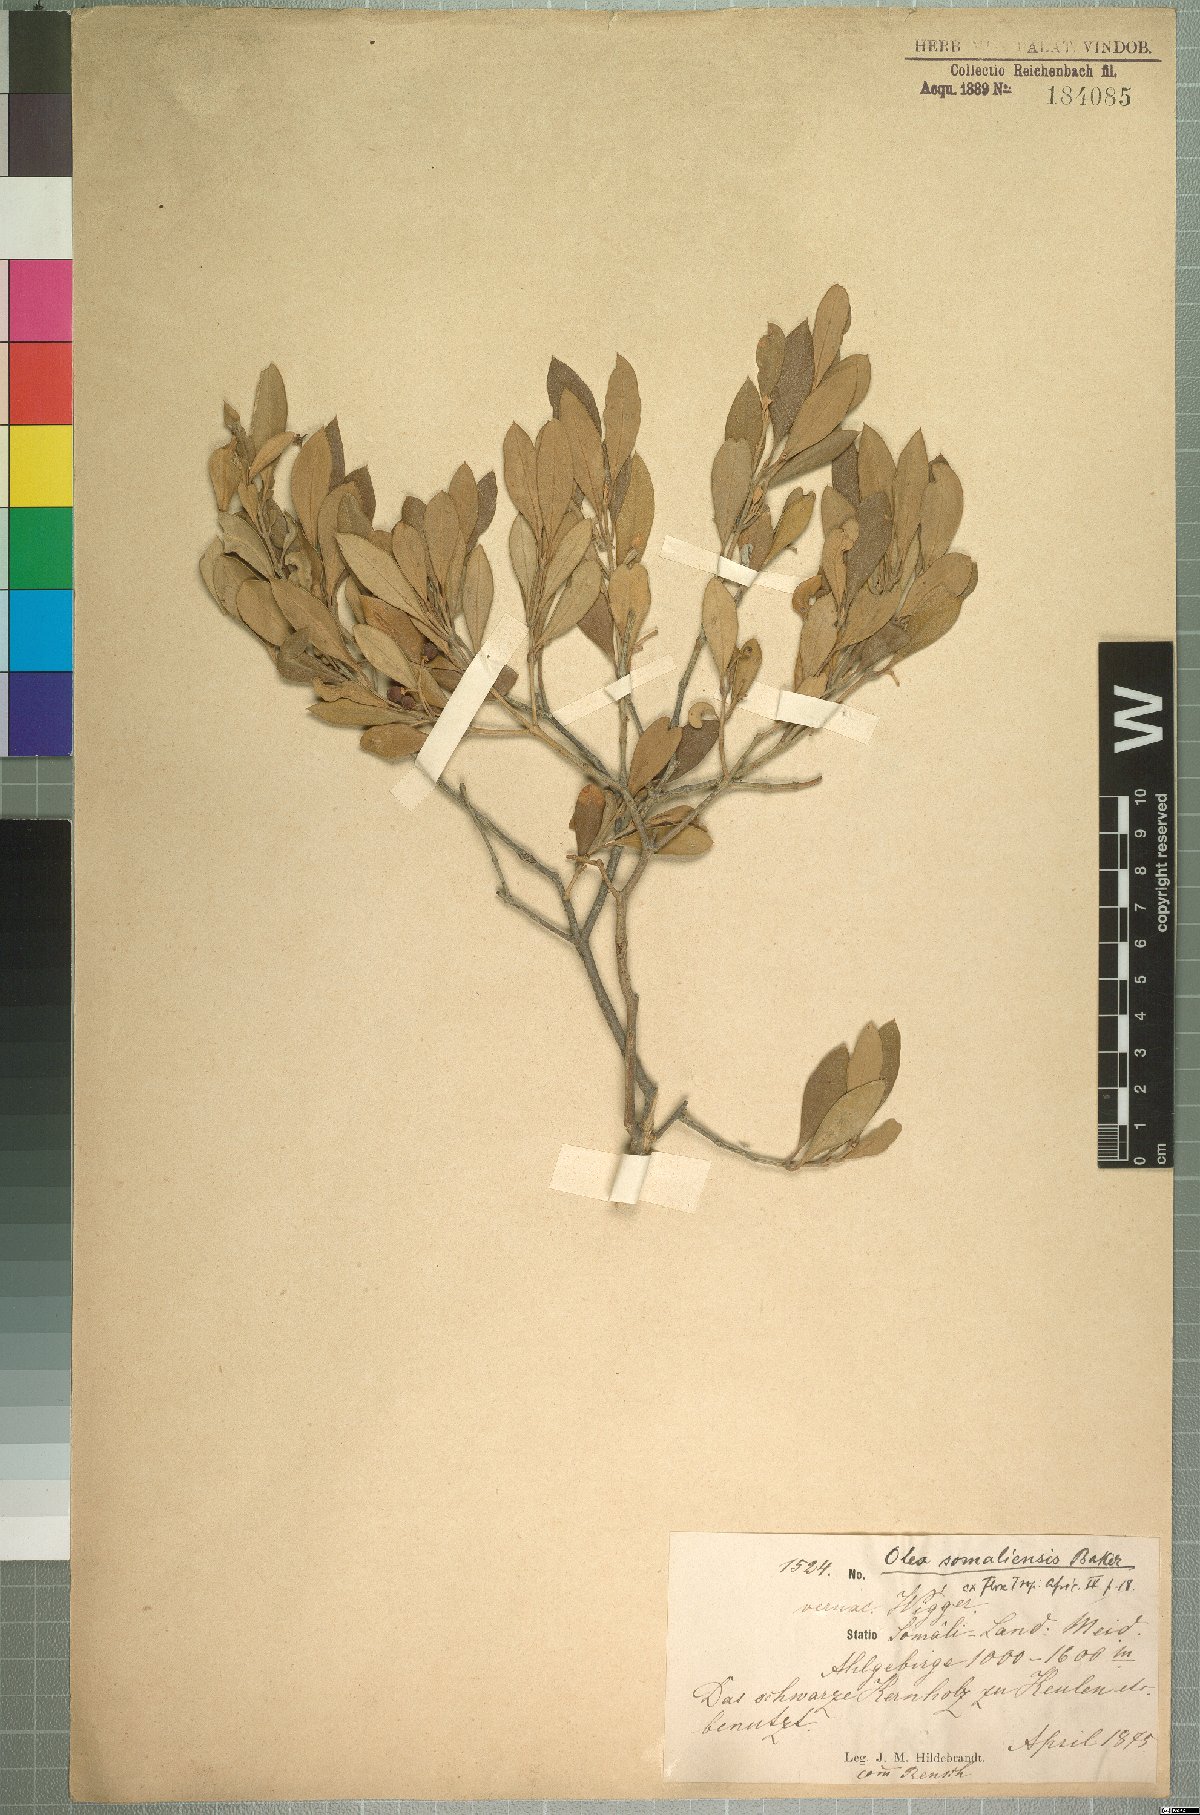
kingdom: Plantae
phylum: Tracheophyta
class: Magnoliopsida
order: Lamiales
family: Oleaceae
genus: Olea
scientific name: Olea europaea
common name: Olive
